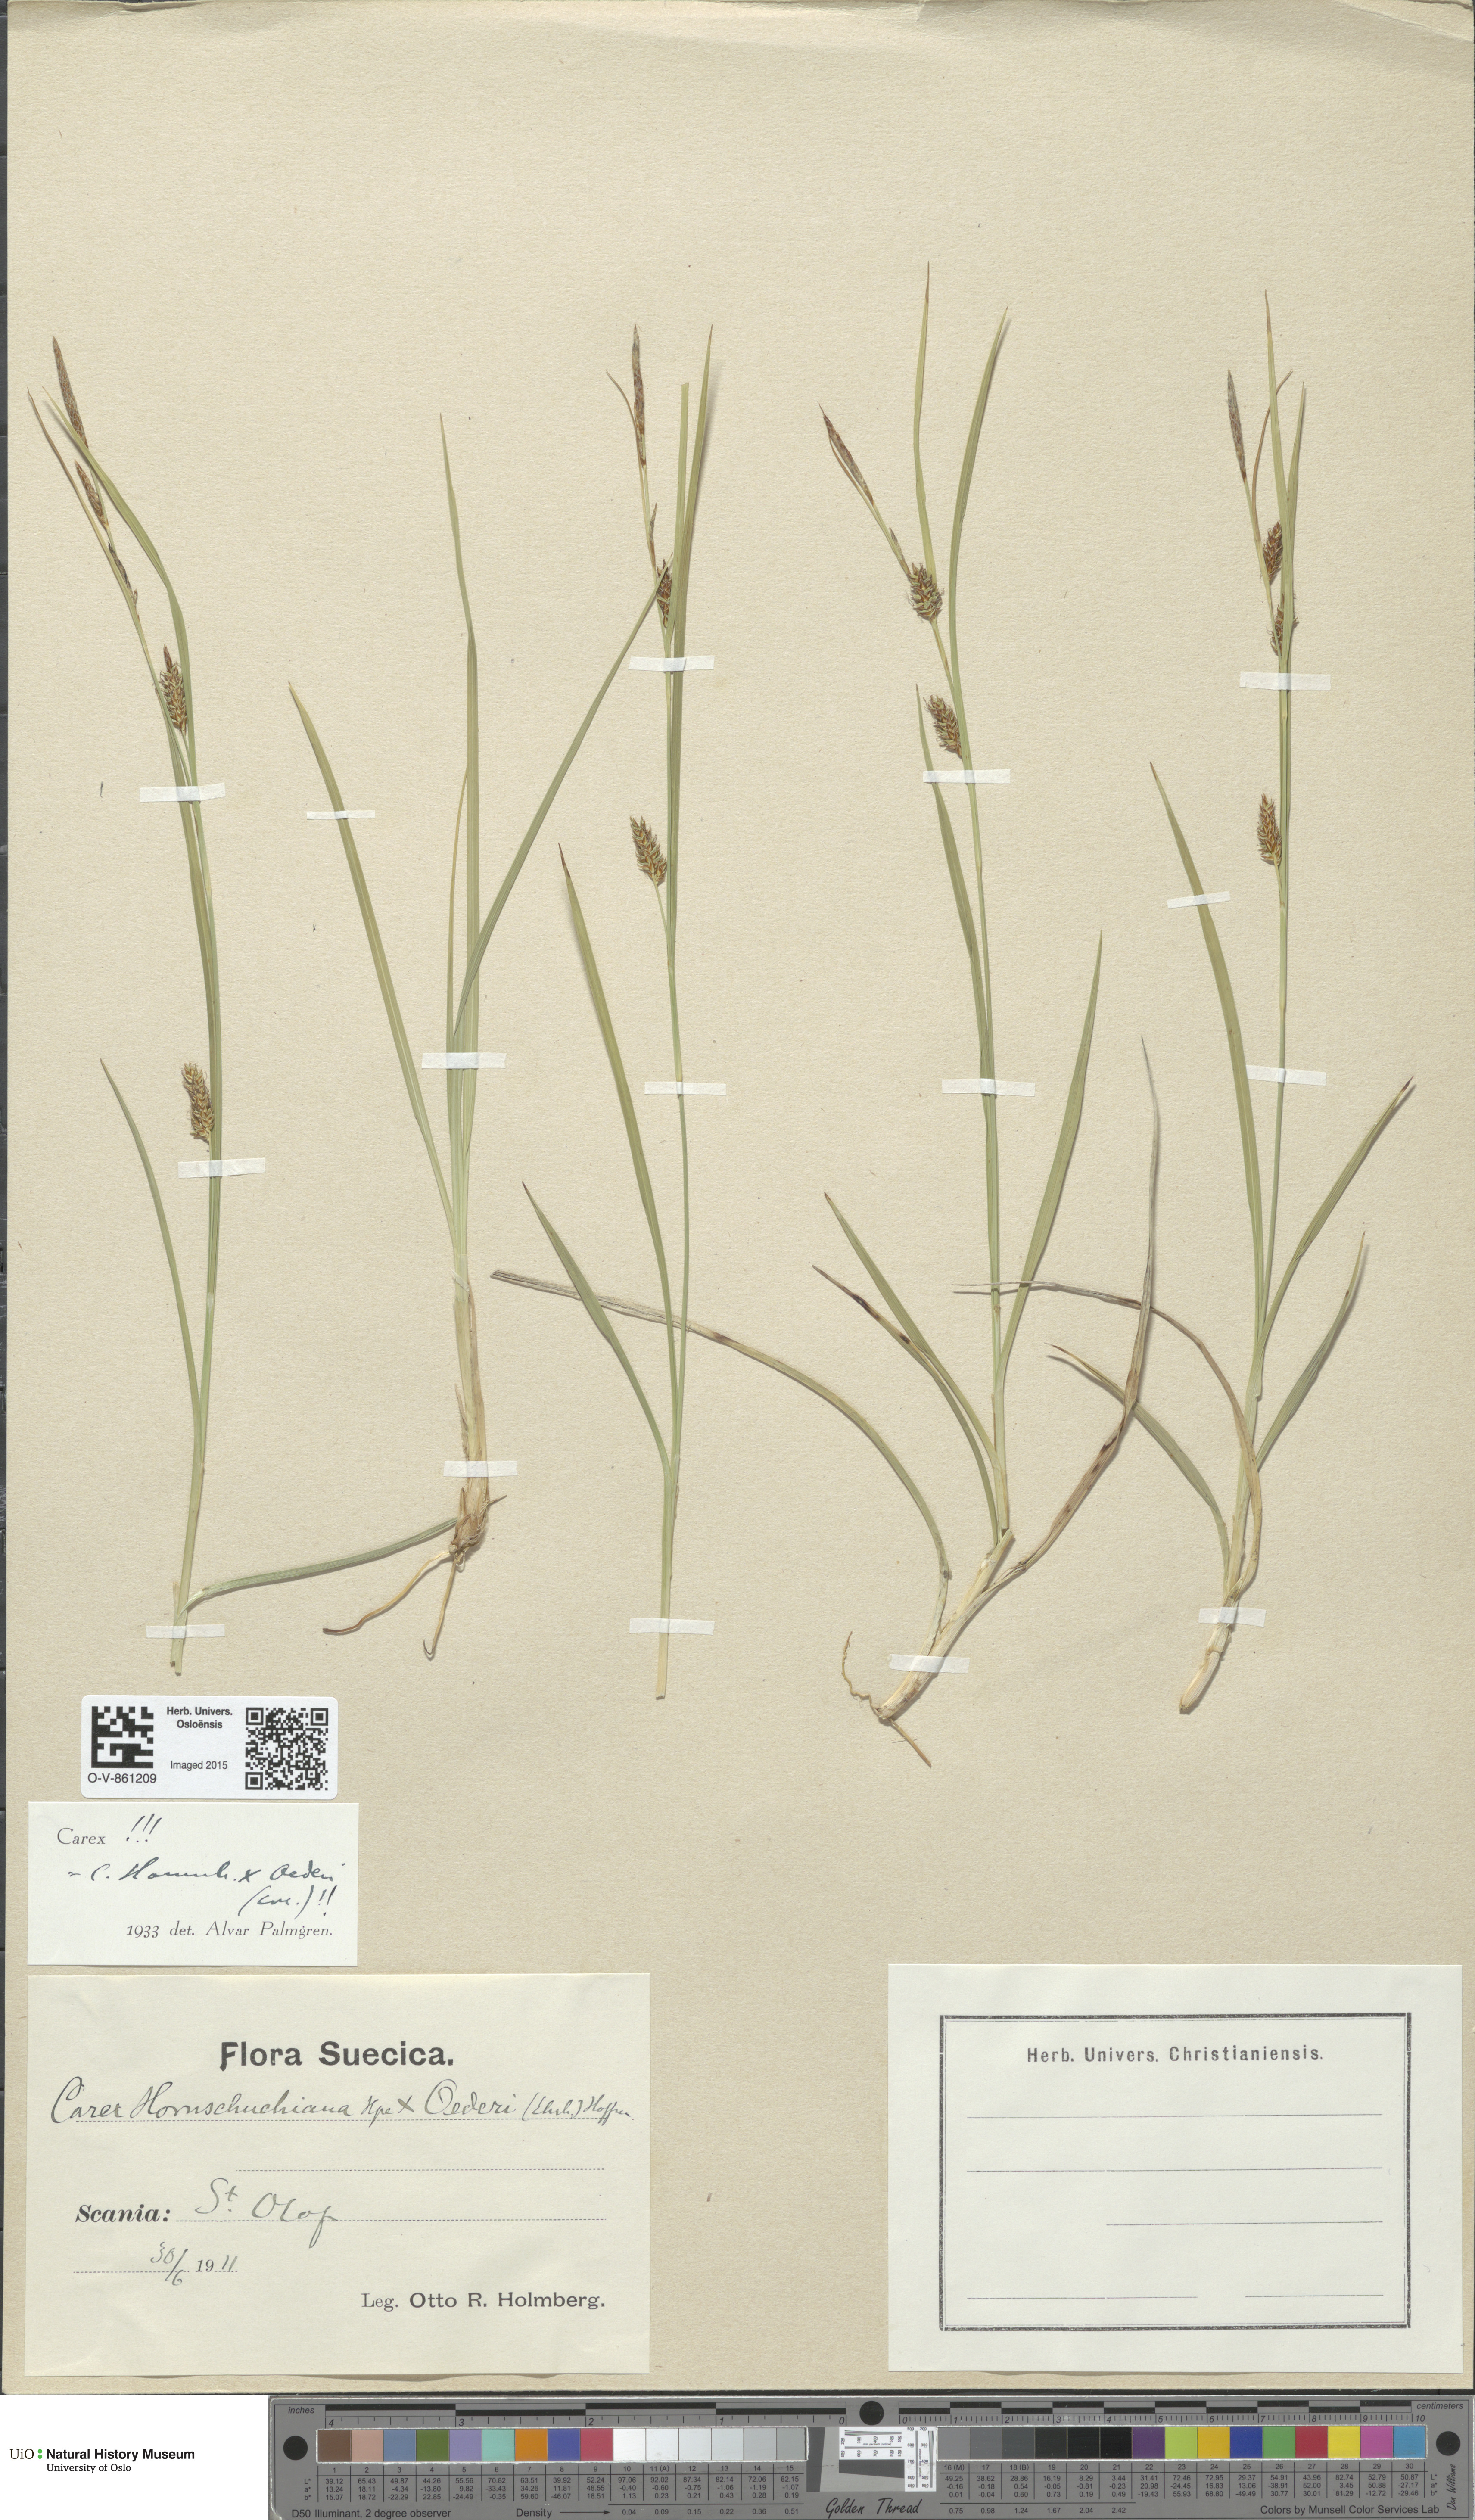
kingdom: Plantae
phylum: Tracheophyta
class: Liliopsida
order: Poales
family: Cyperaceae
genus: Carex
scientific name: Carex
